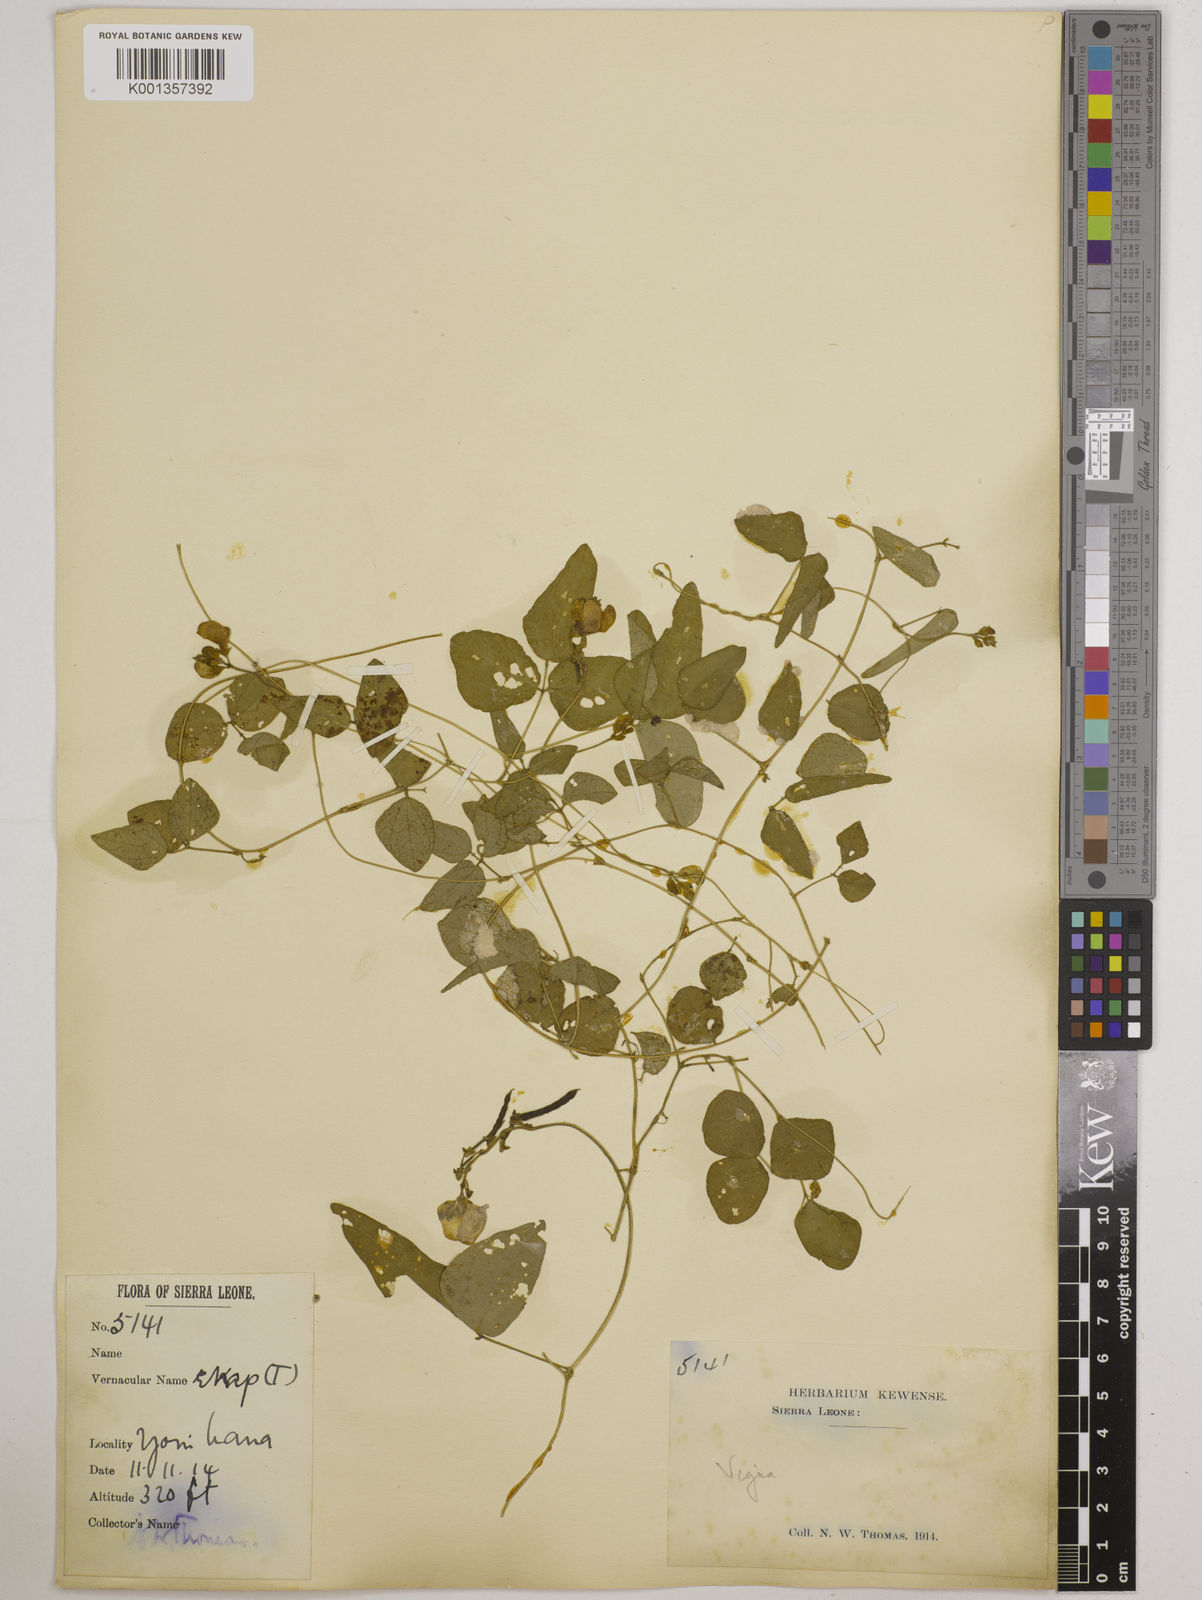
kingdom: Plantae
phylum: Tracheophyta
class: Magnoliopsida
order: Fabales
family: Fabaceae
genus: Vigna
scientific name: Vigna gracilis
